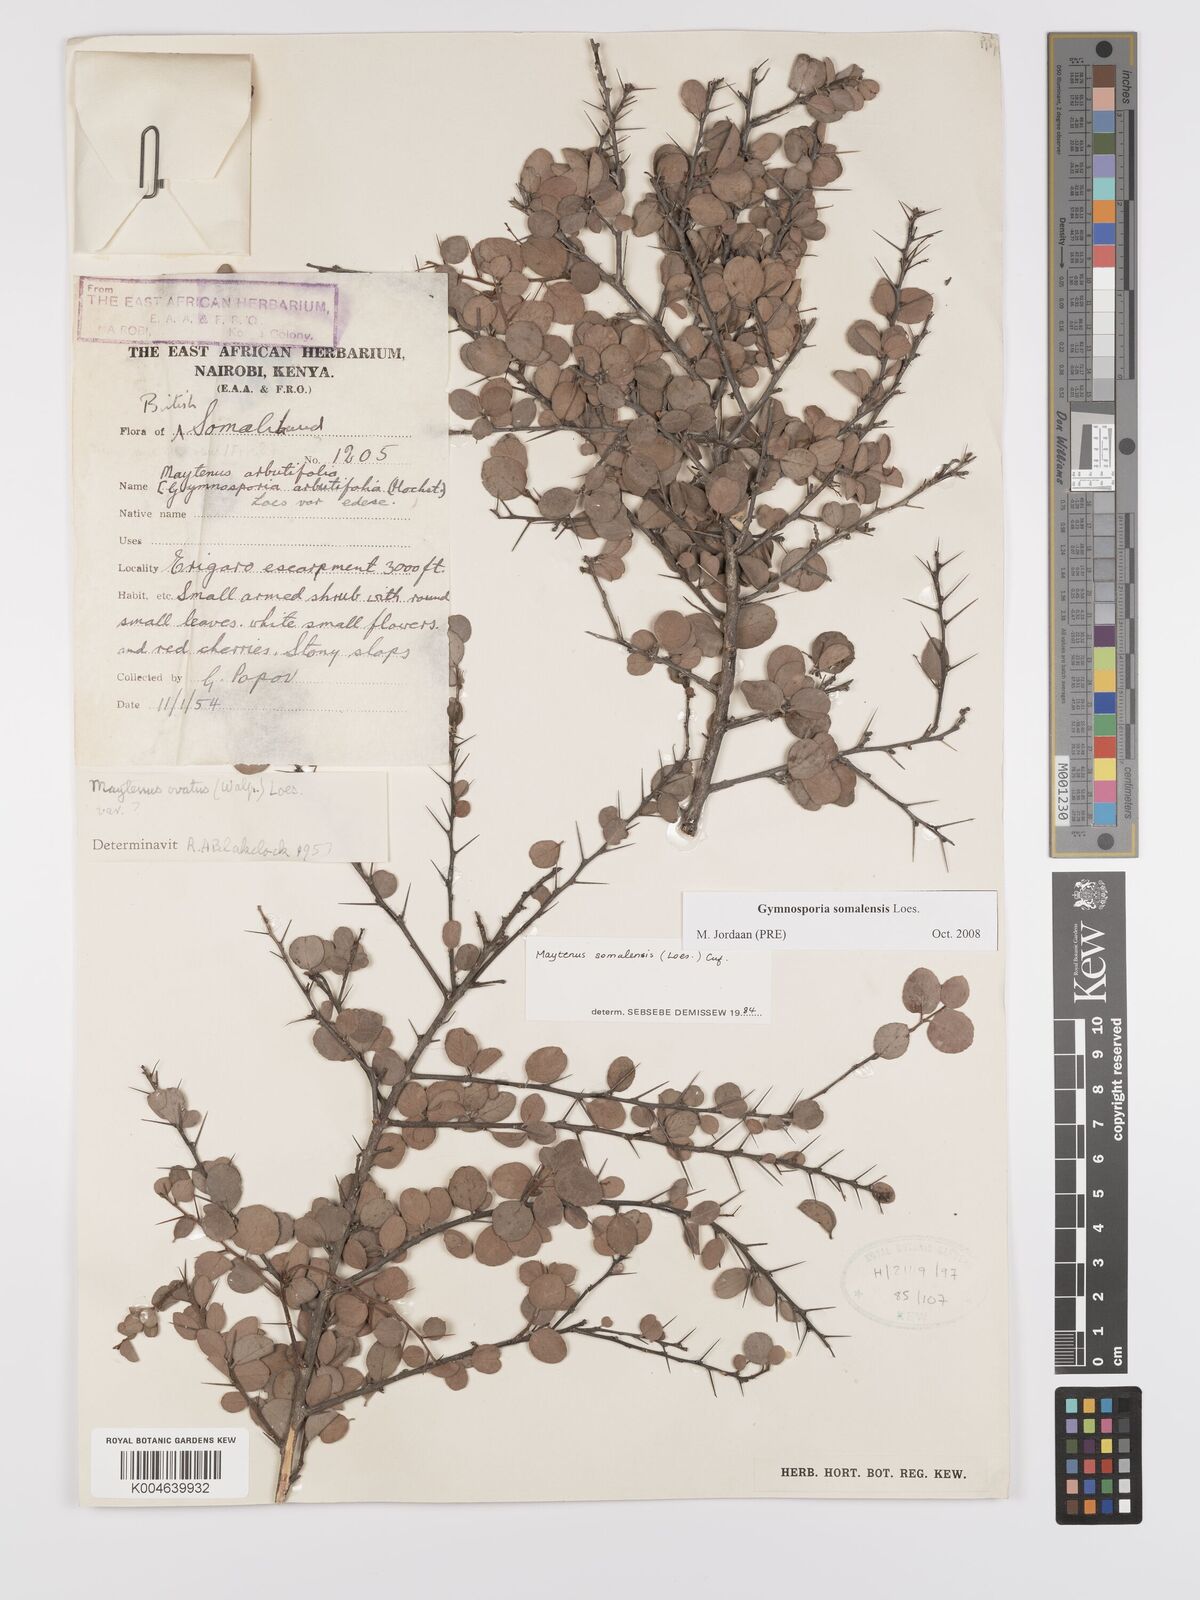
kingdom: Plantae
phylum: Tracheophyta
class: Magnoliopsida
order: Celastrales
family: Celastraceae
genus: Gymnosporia
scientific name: Gymnosporia somalensis
